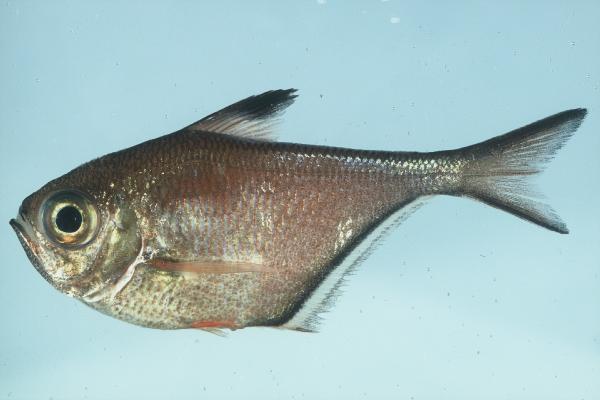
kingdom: Animalia
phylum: Chordata
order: Perciformes
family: Pempheridae
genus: Pempheris
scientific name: Pempheris schwenkii
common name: Silver bullseye
